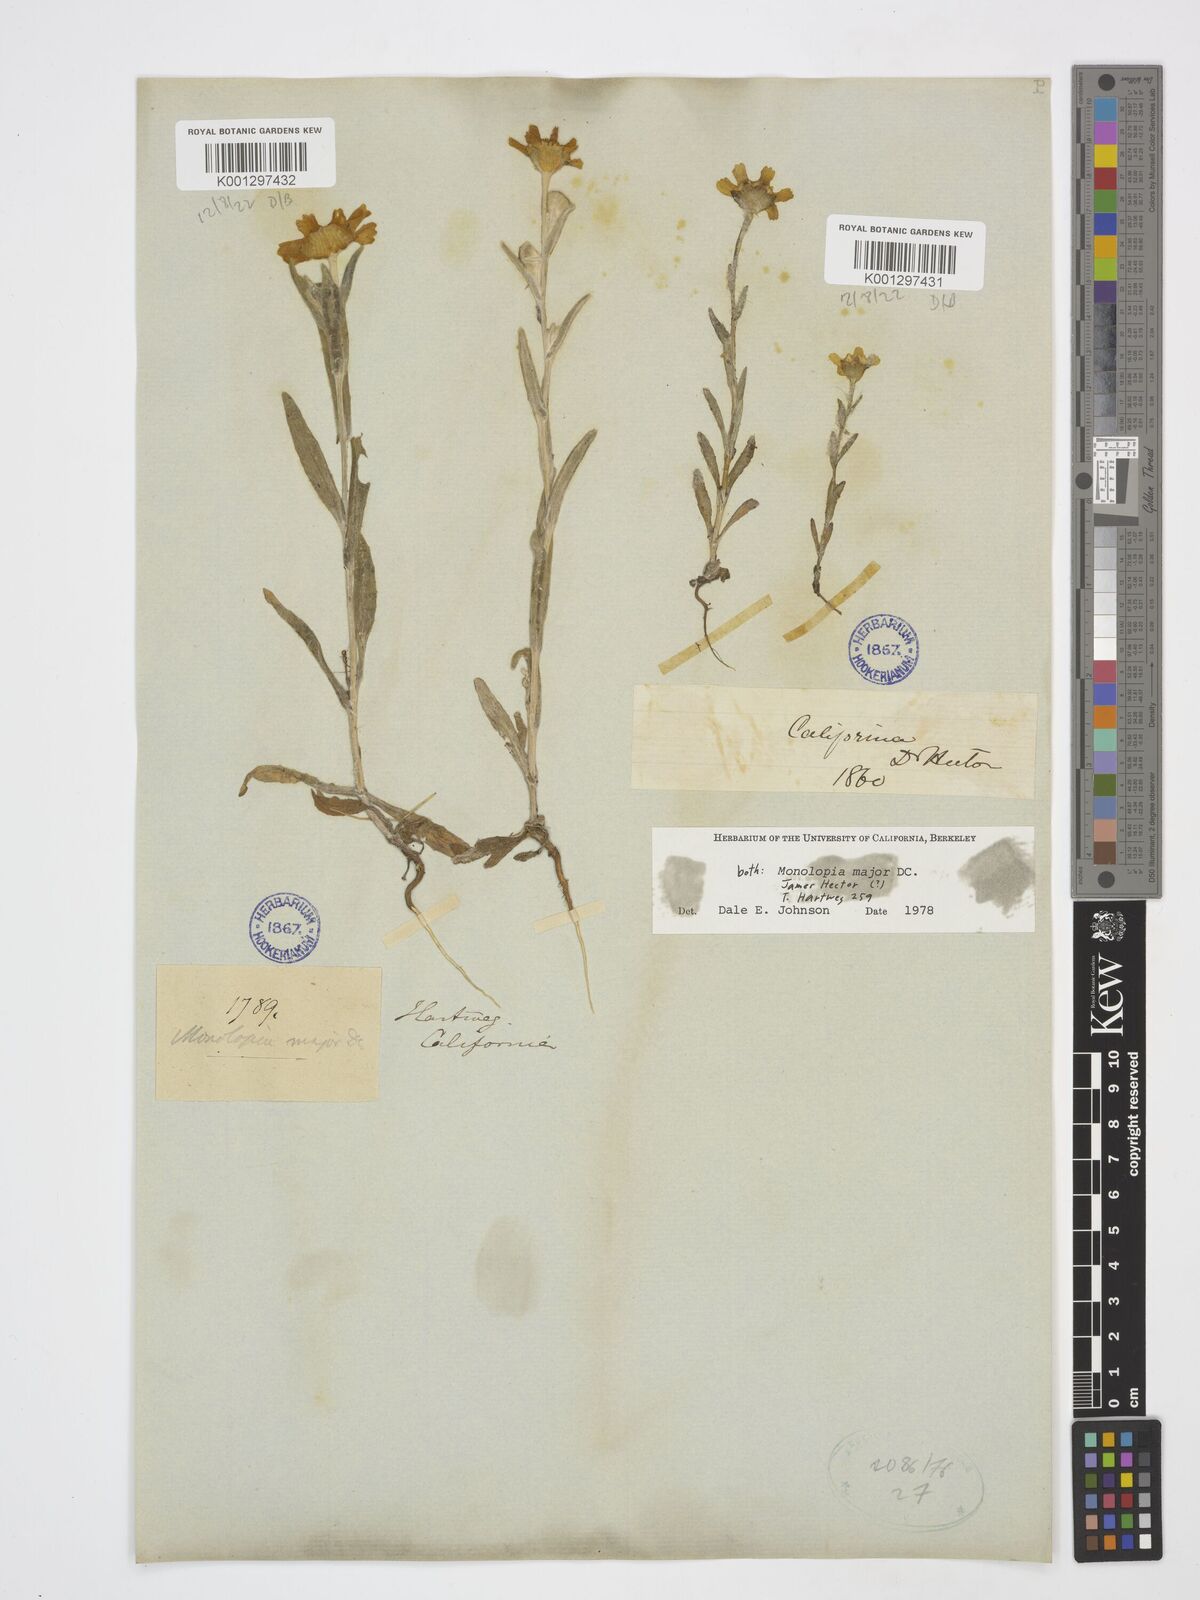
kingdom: Plantae
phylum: Tracheophyta
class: Magnoliopsida
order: Asterales
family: Asteraceae
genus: Monolopia
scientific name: Monolopia major
